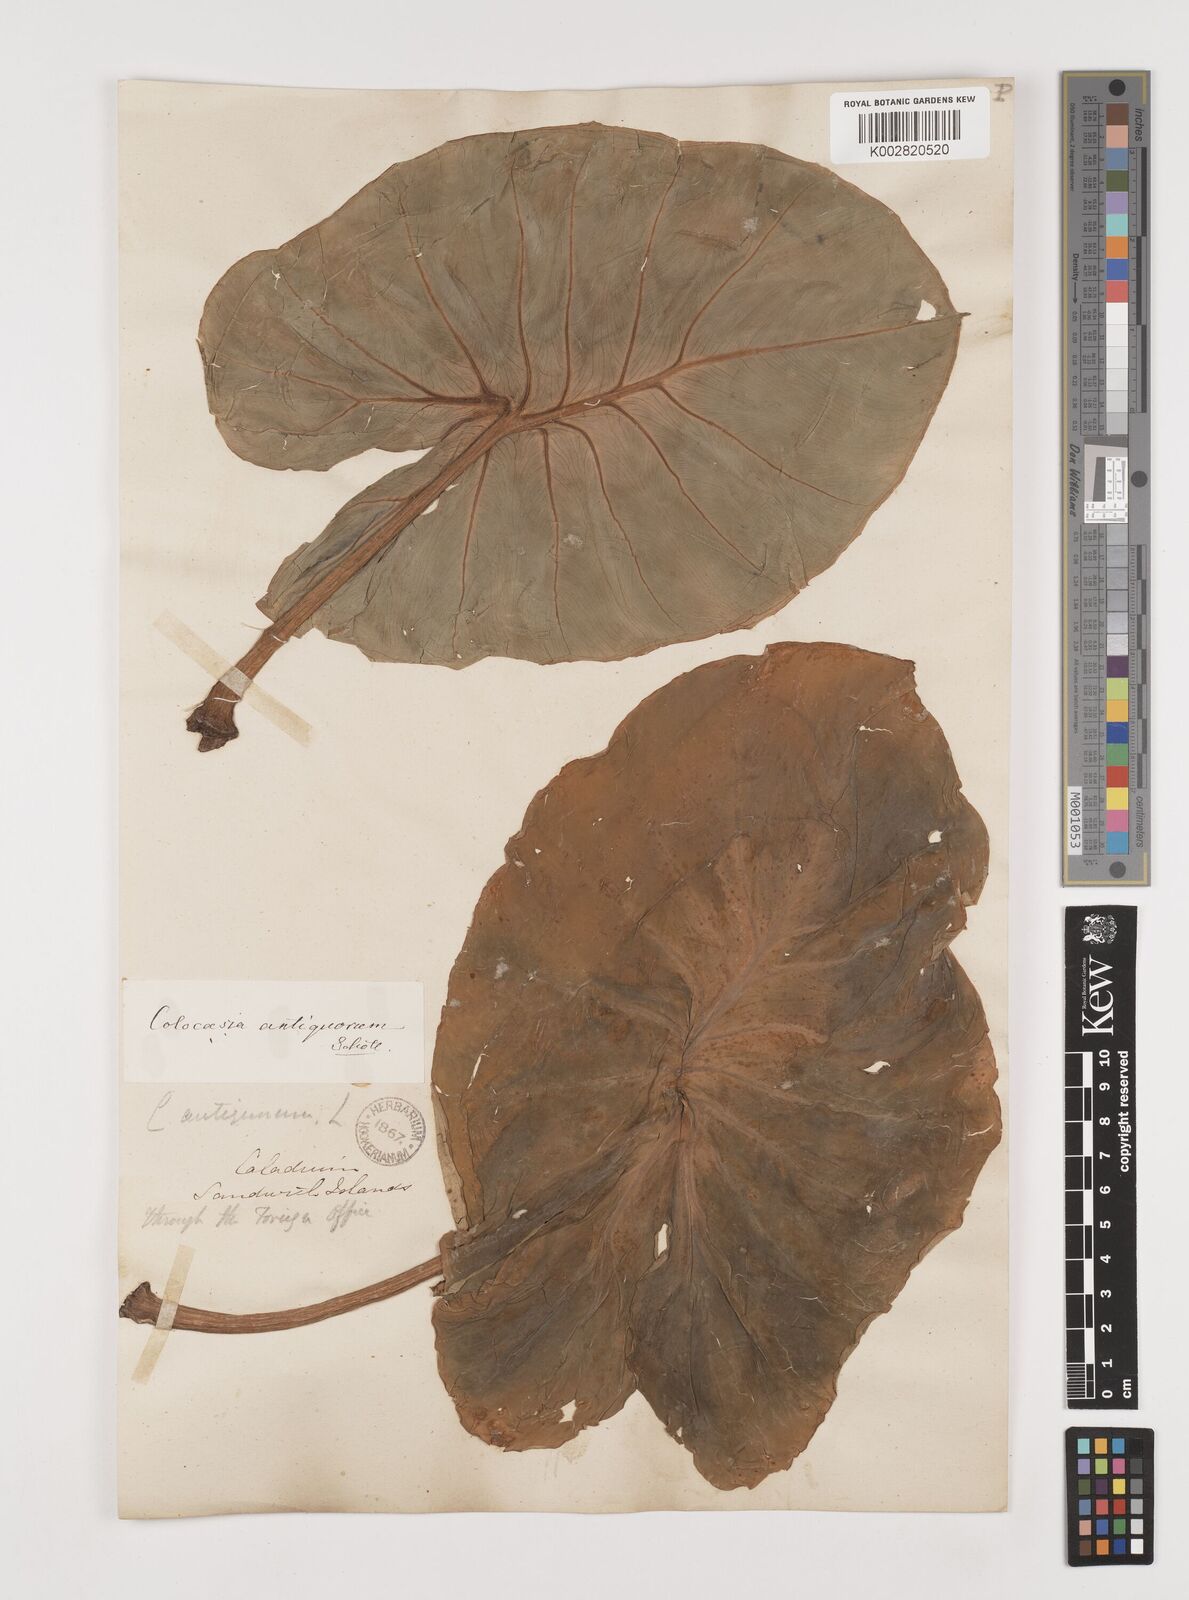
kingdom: Plantae
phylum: Tracheophyta
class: Liliopsida
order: Alismatales
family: Araceae
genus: Colocasia
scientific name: Colocasia esculenta
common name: Taro
